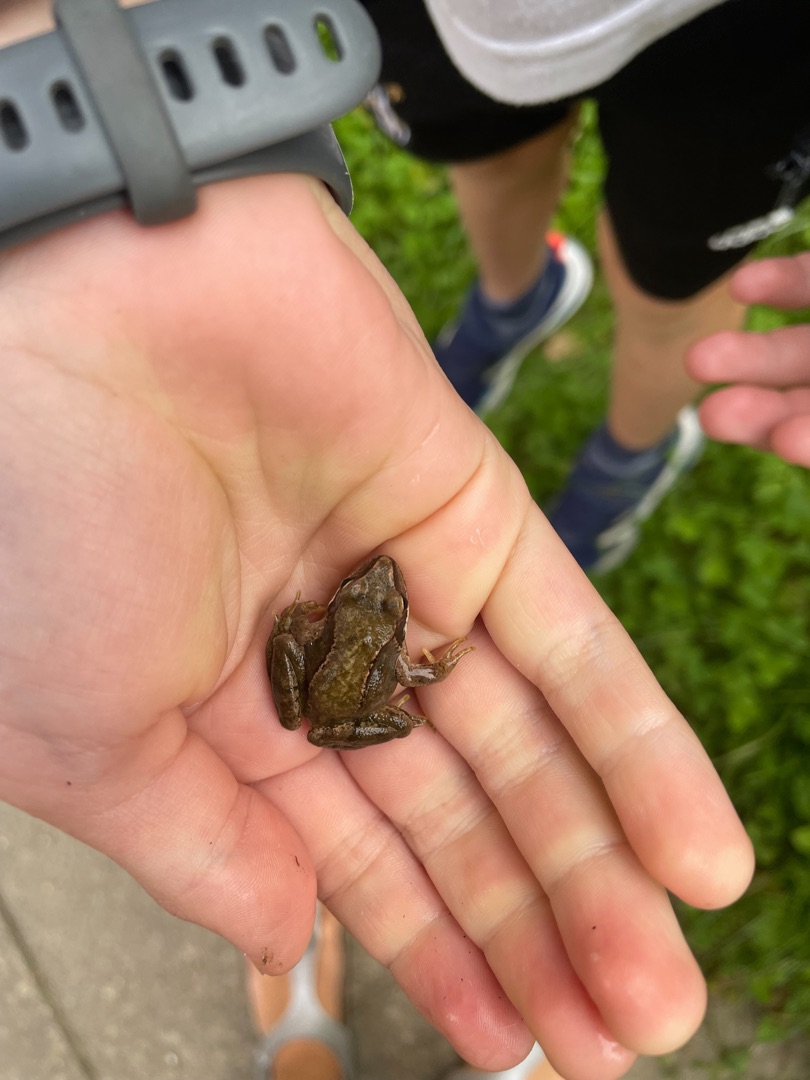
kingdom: Animalia
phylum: Chordata
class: Amphibia
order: Anura
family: Ranidae
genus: Rana
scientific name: Rana temporaria
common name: Butsnudet frø
